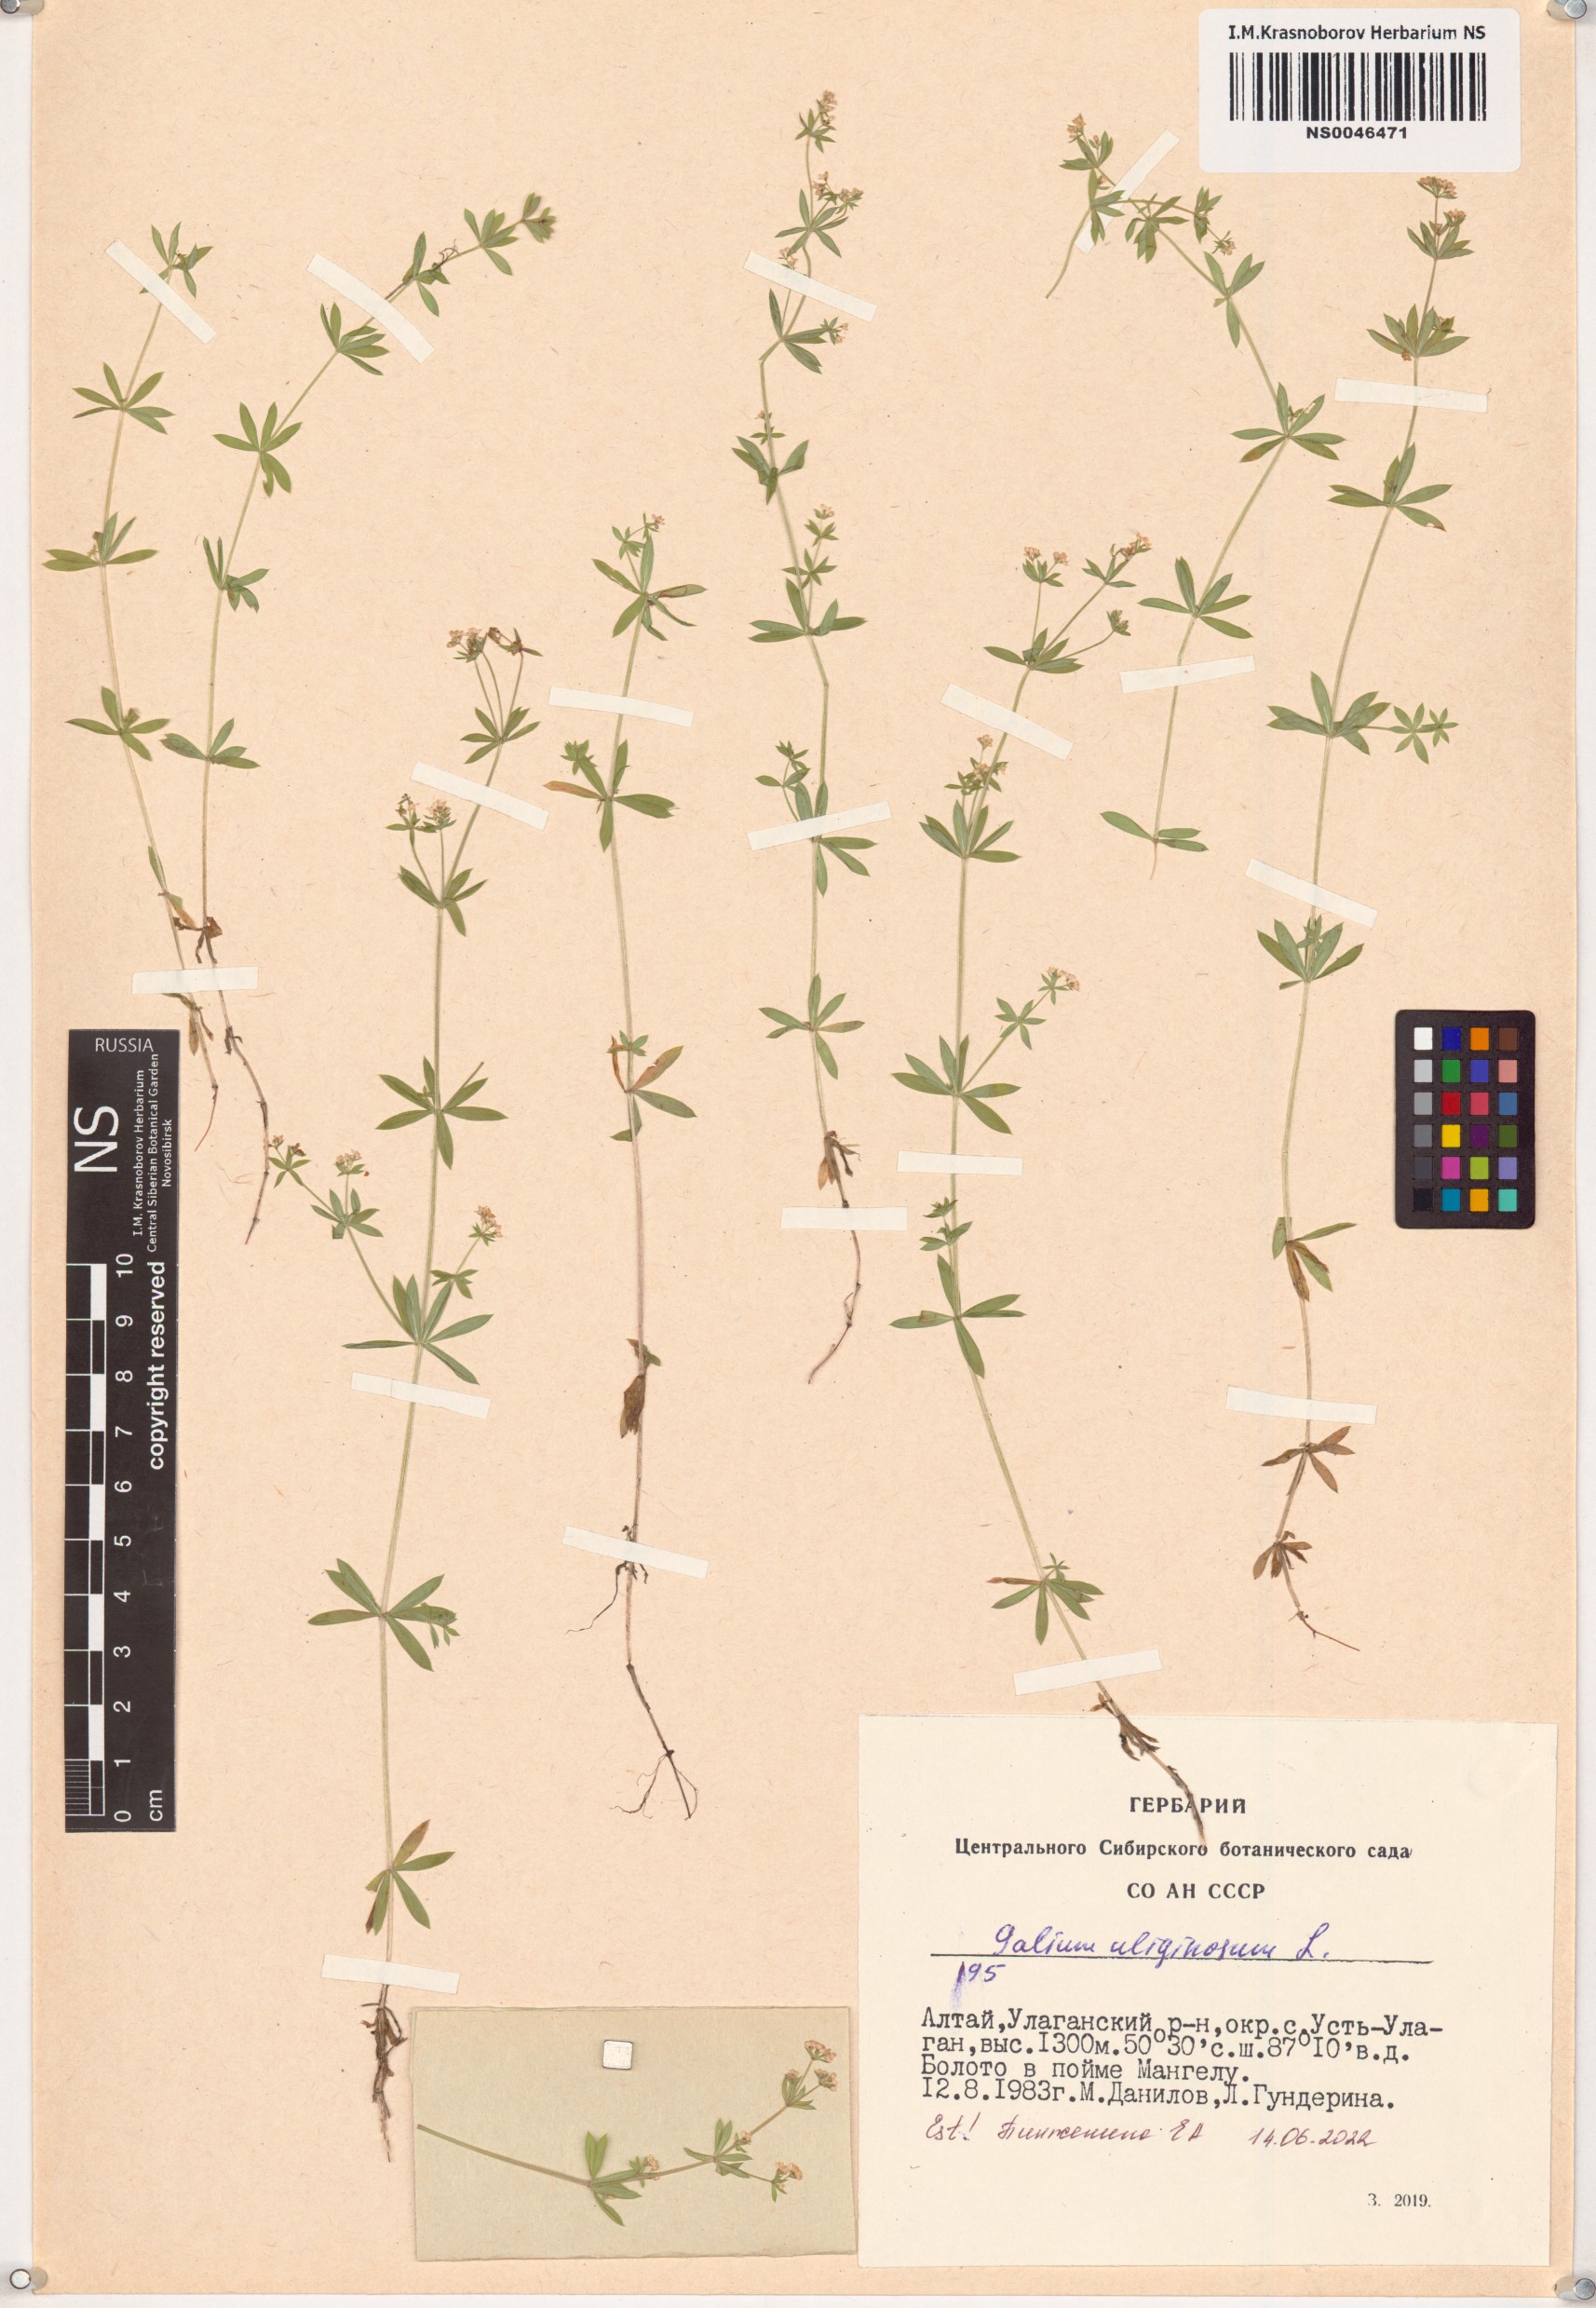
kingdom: Plantae
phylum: Tracheophyta
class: Magnoliopsida
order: Gentianales
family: Rubiaceae
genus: Galium
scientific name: Galium uliginosum
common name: Fen bedstraw
